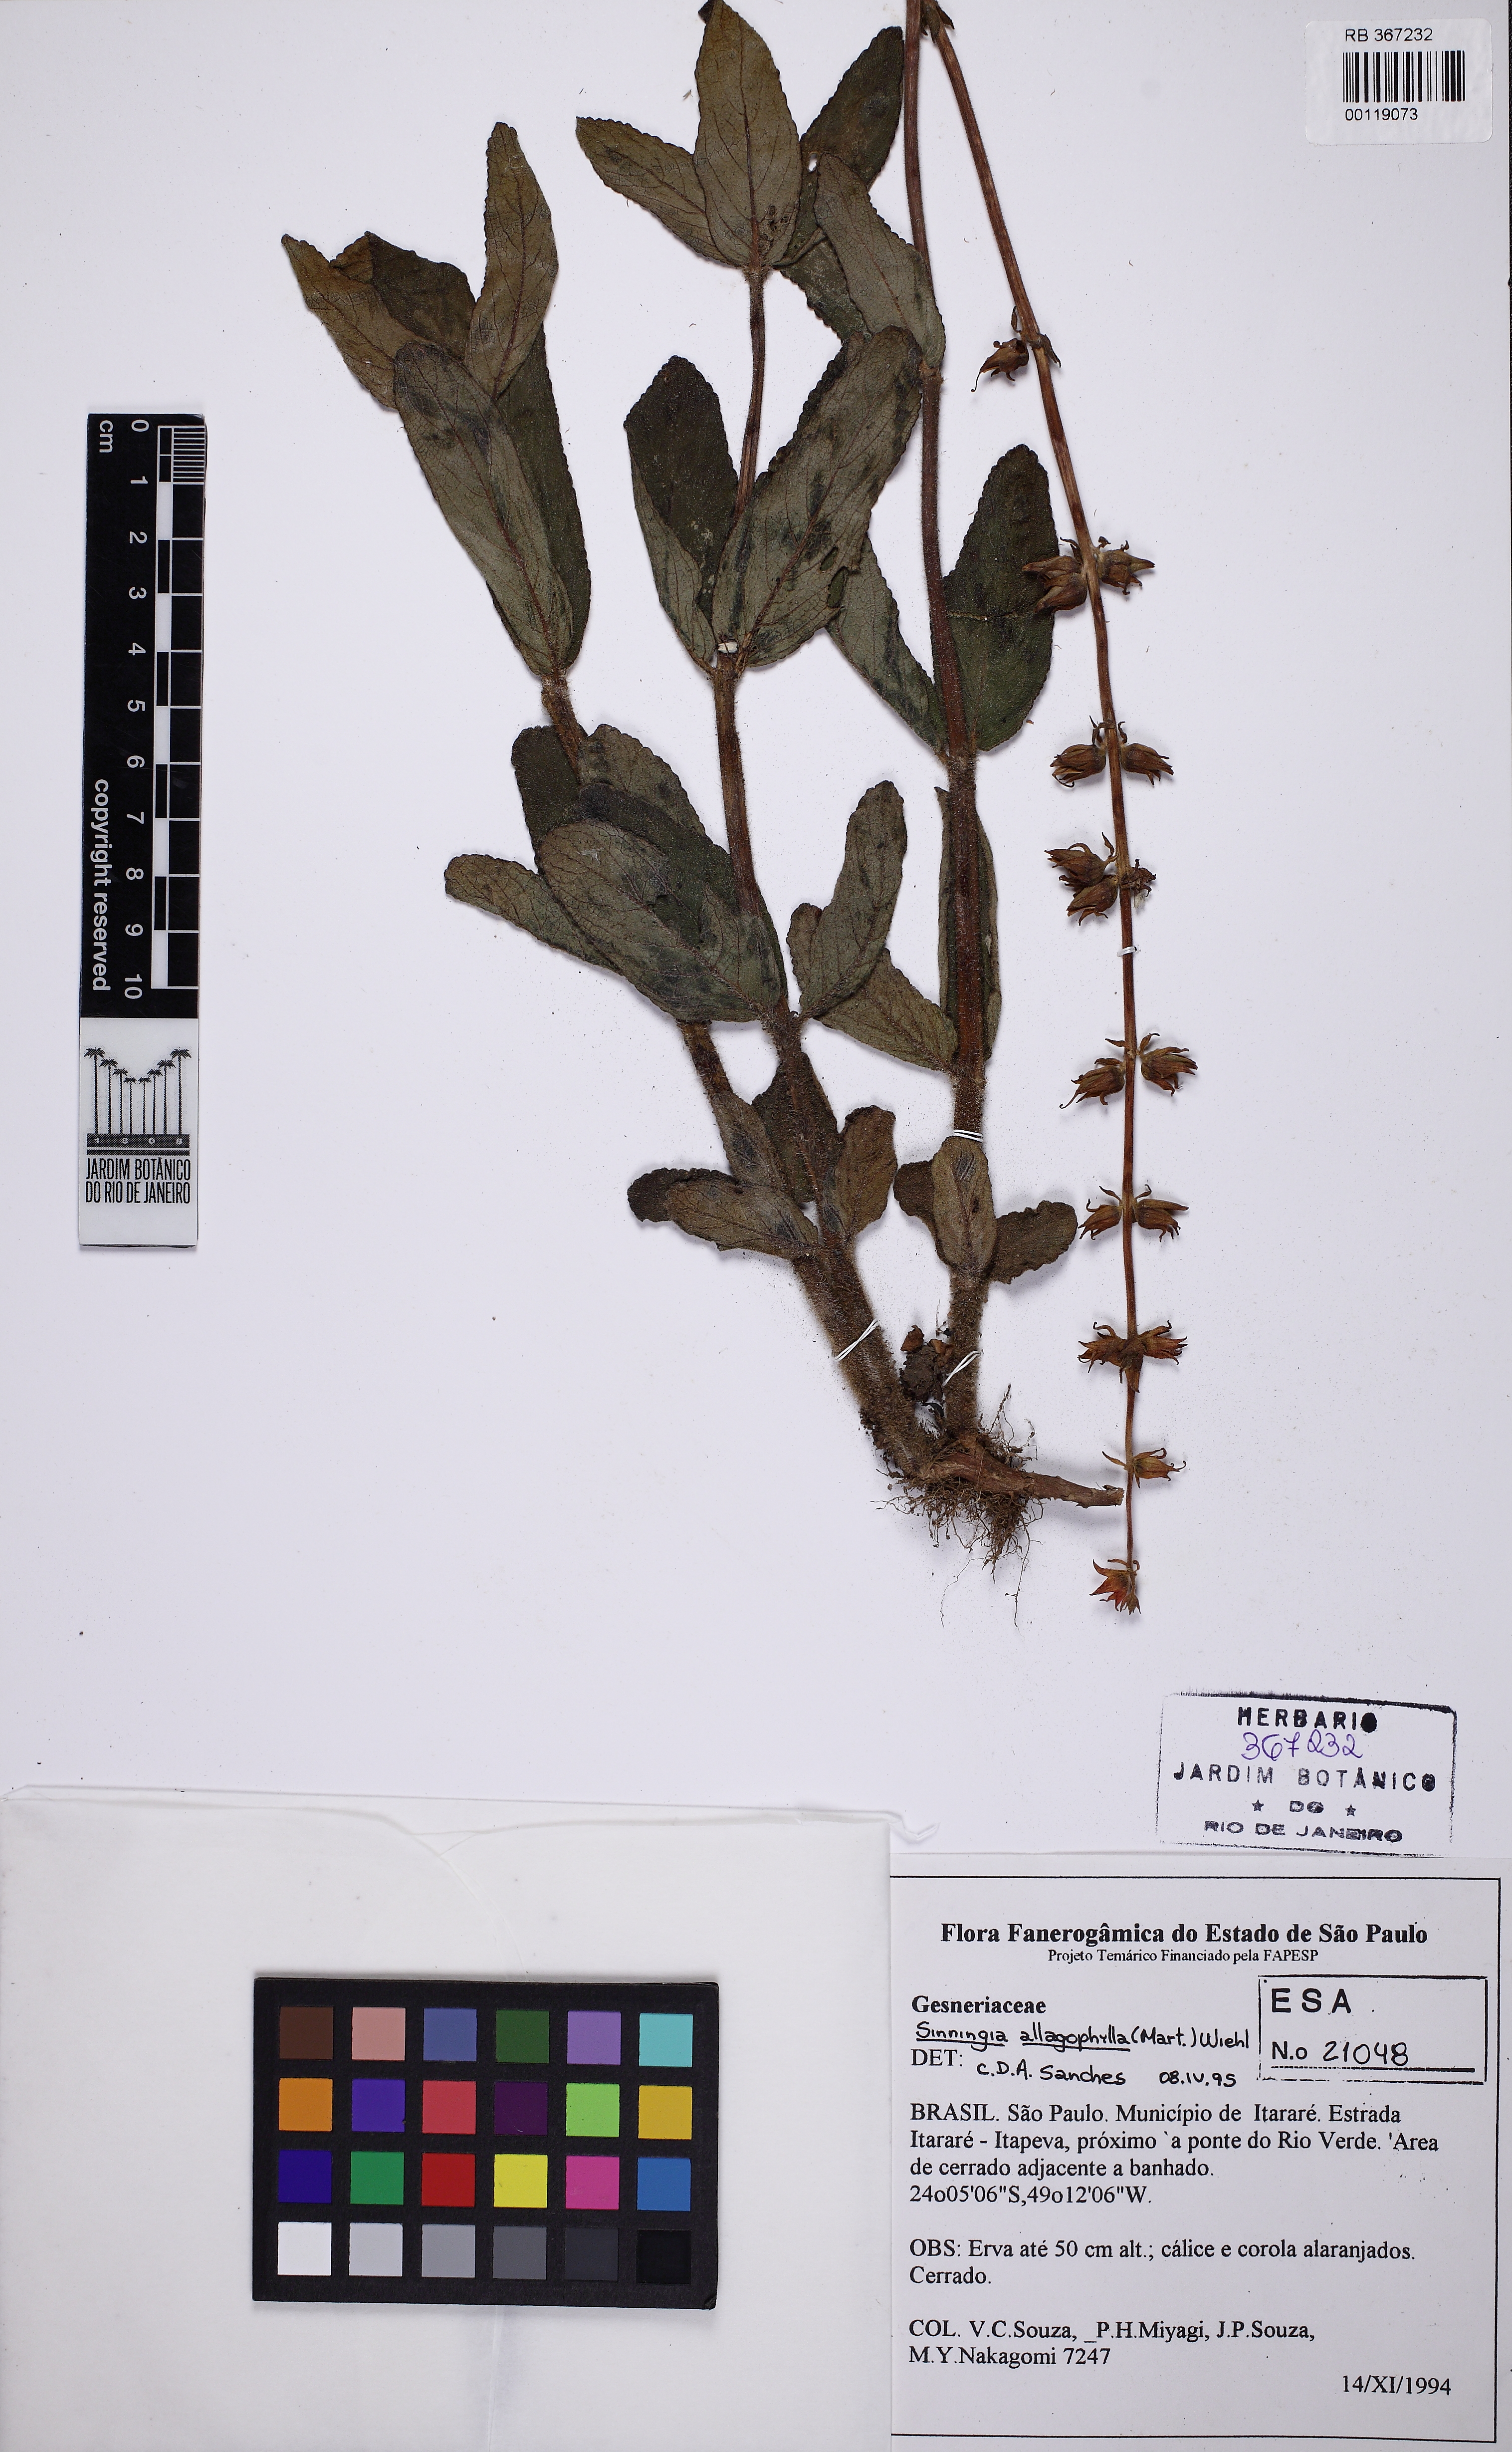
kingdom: Plantae
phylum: Tracheophyta
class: Magnoliopsida
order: Lamiales
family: Gesneriaceae
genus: Sinningia
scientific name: Sinningia allagophylla
